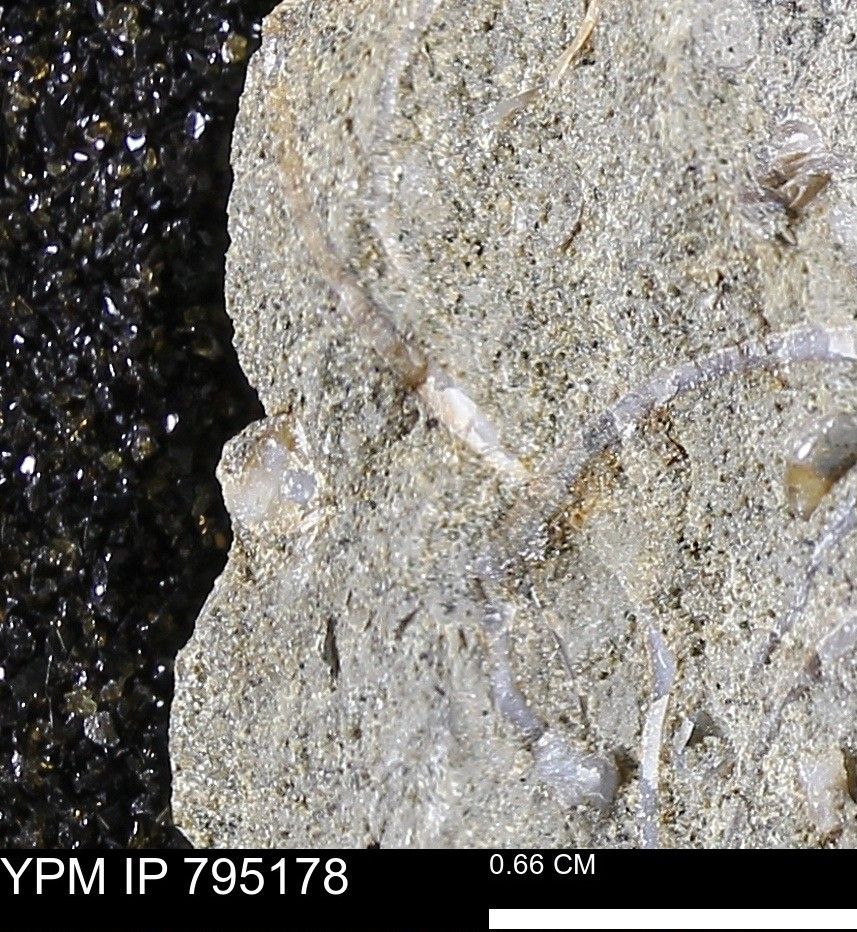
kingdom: Animalia
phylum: Mollusca
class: Bivalvia
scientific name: Bivalvia
